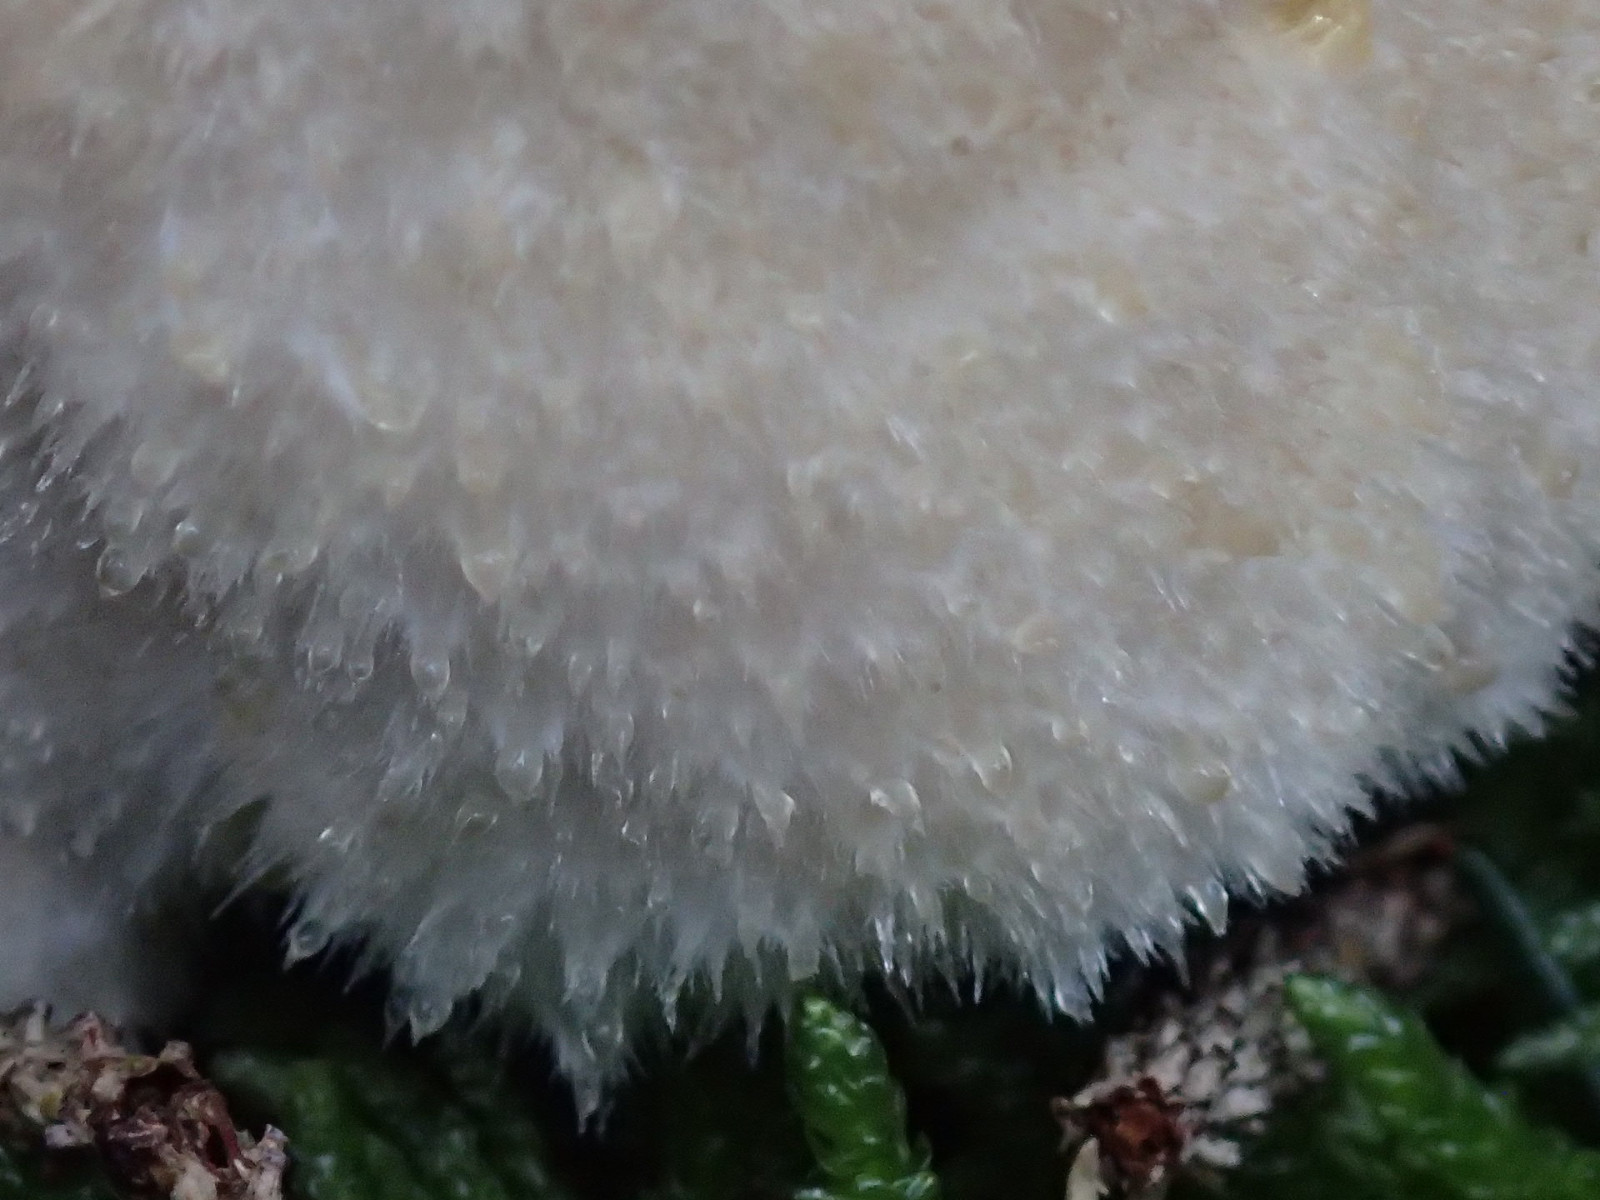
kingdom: Fungi
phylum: Basidiomycota
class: Agaricomycetes
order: Polyporales
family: Dacryobolaceae
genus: Postia
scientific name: Postia ptychogaster
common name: støvende kødporesvamp
